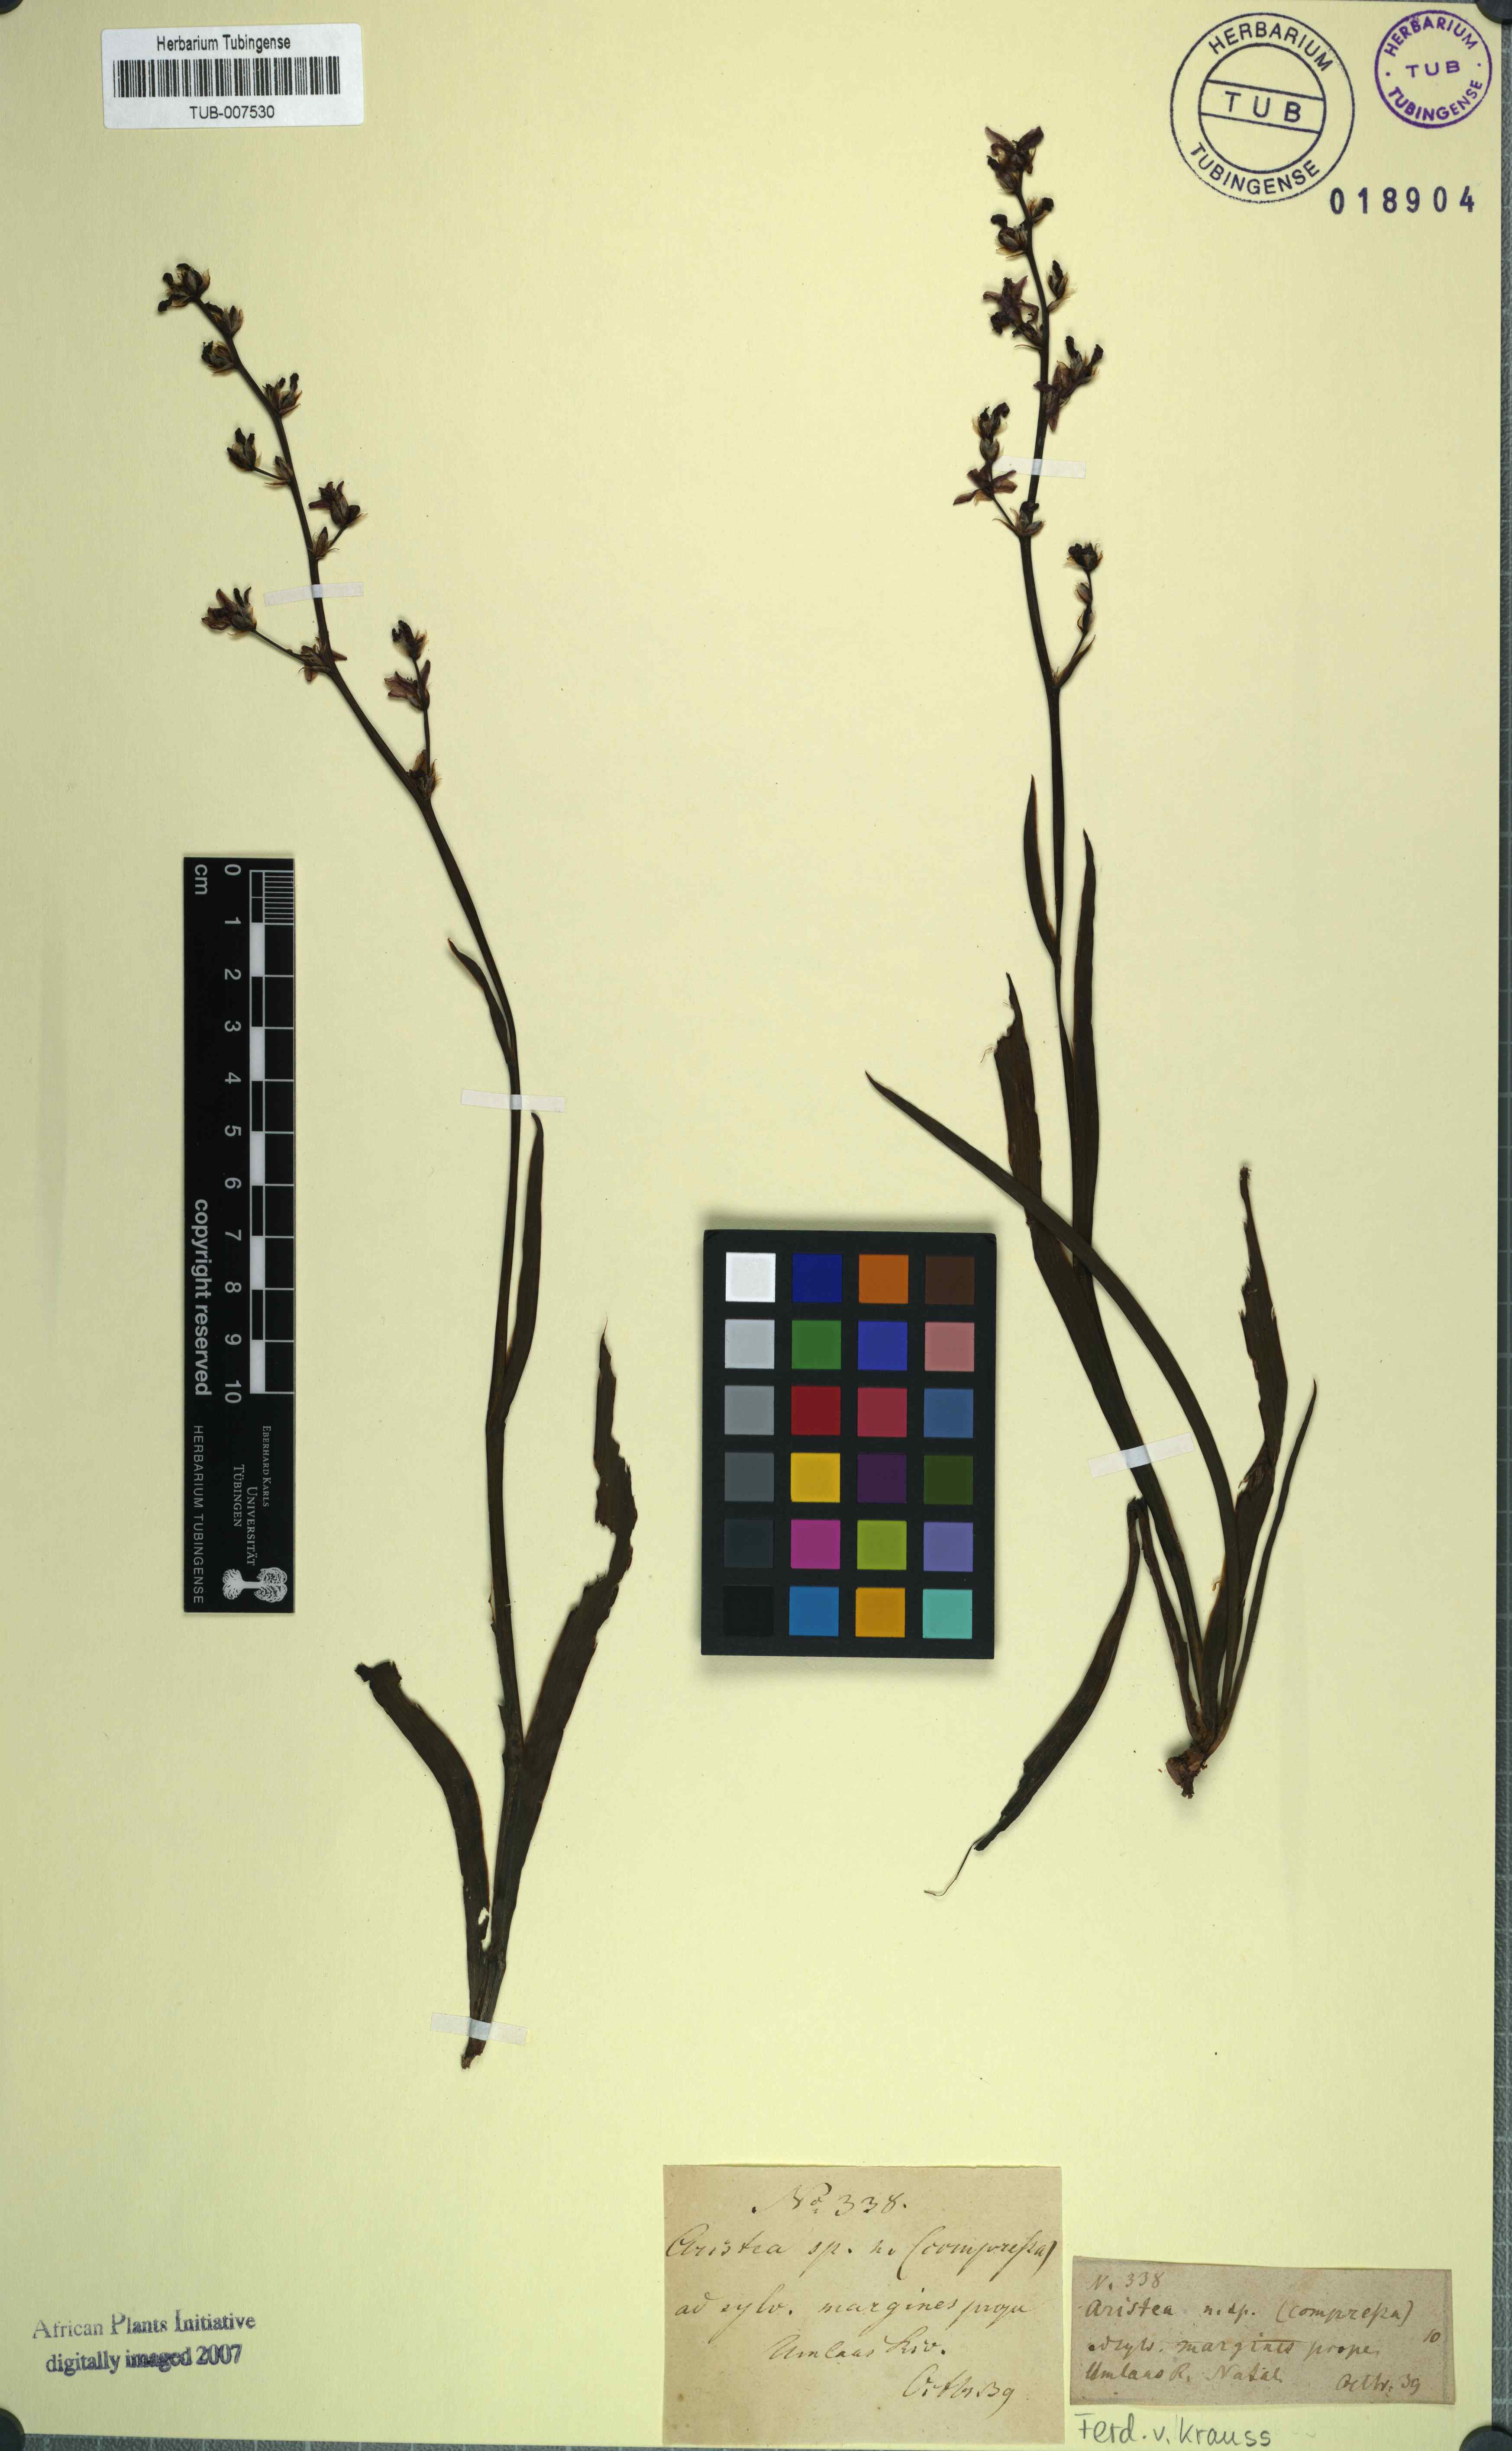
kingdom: Plantae
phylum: Tracheophyta
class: Liliopsida
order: Asparagales
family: Iridaceae
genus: Aristea
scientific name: Aristea compressa
